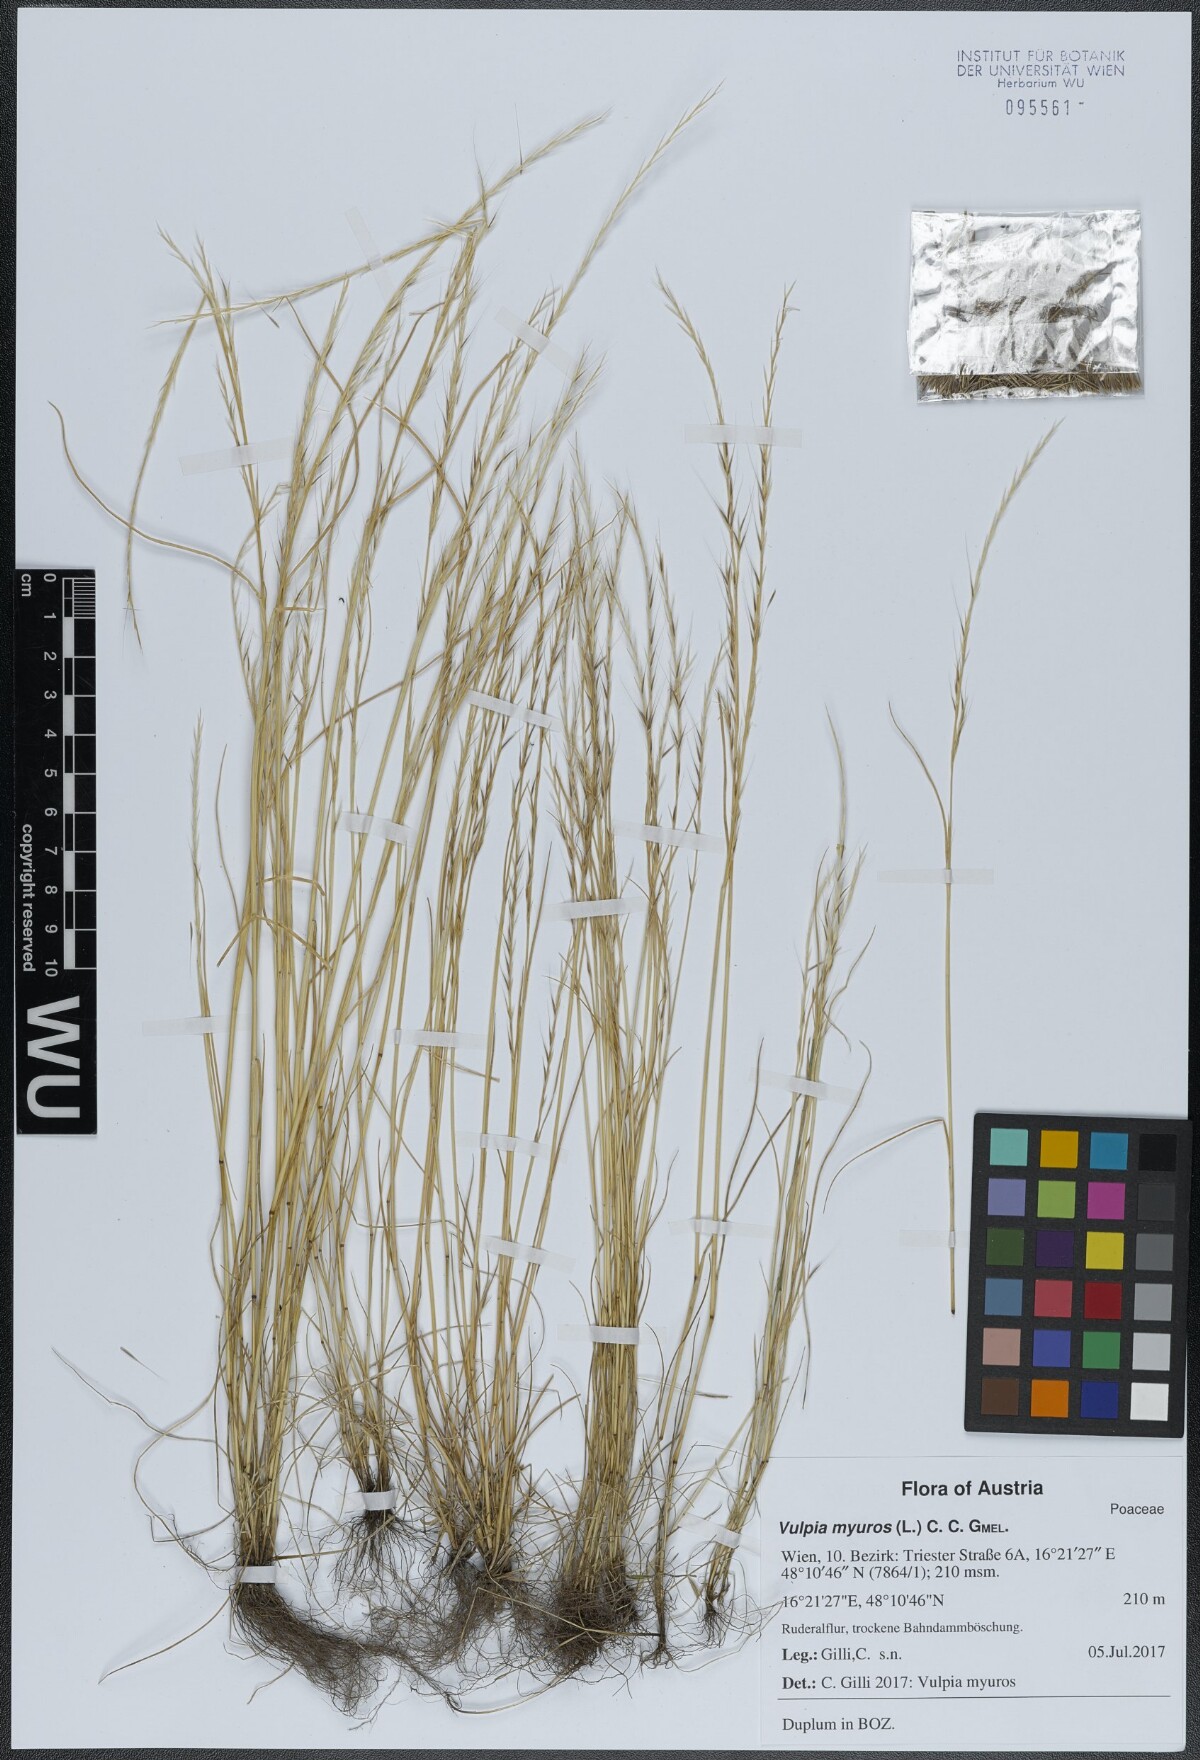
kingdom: Plantae
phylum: Tracheophyta
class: Liliopsida
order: Poales
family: Poaceae
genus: Festuca
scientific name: Festuca myuros
